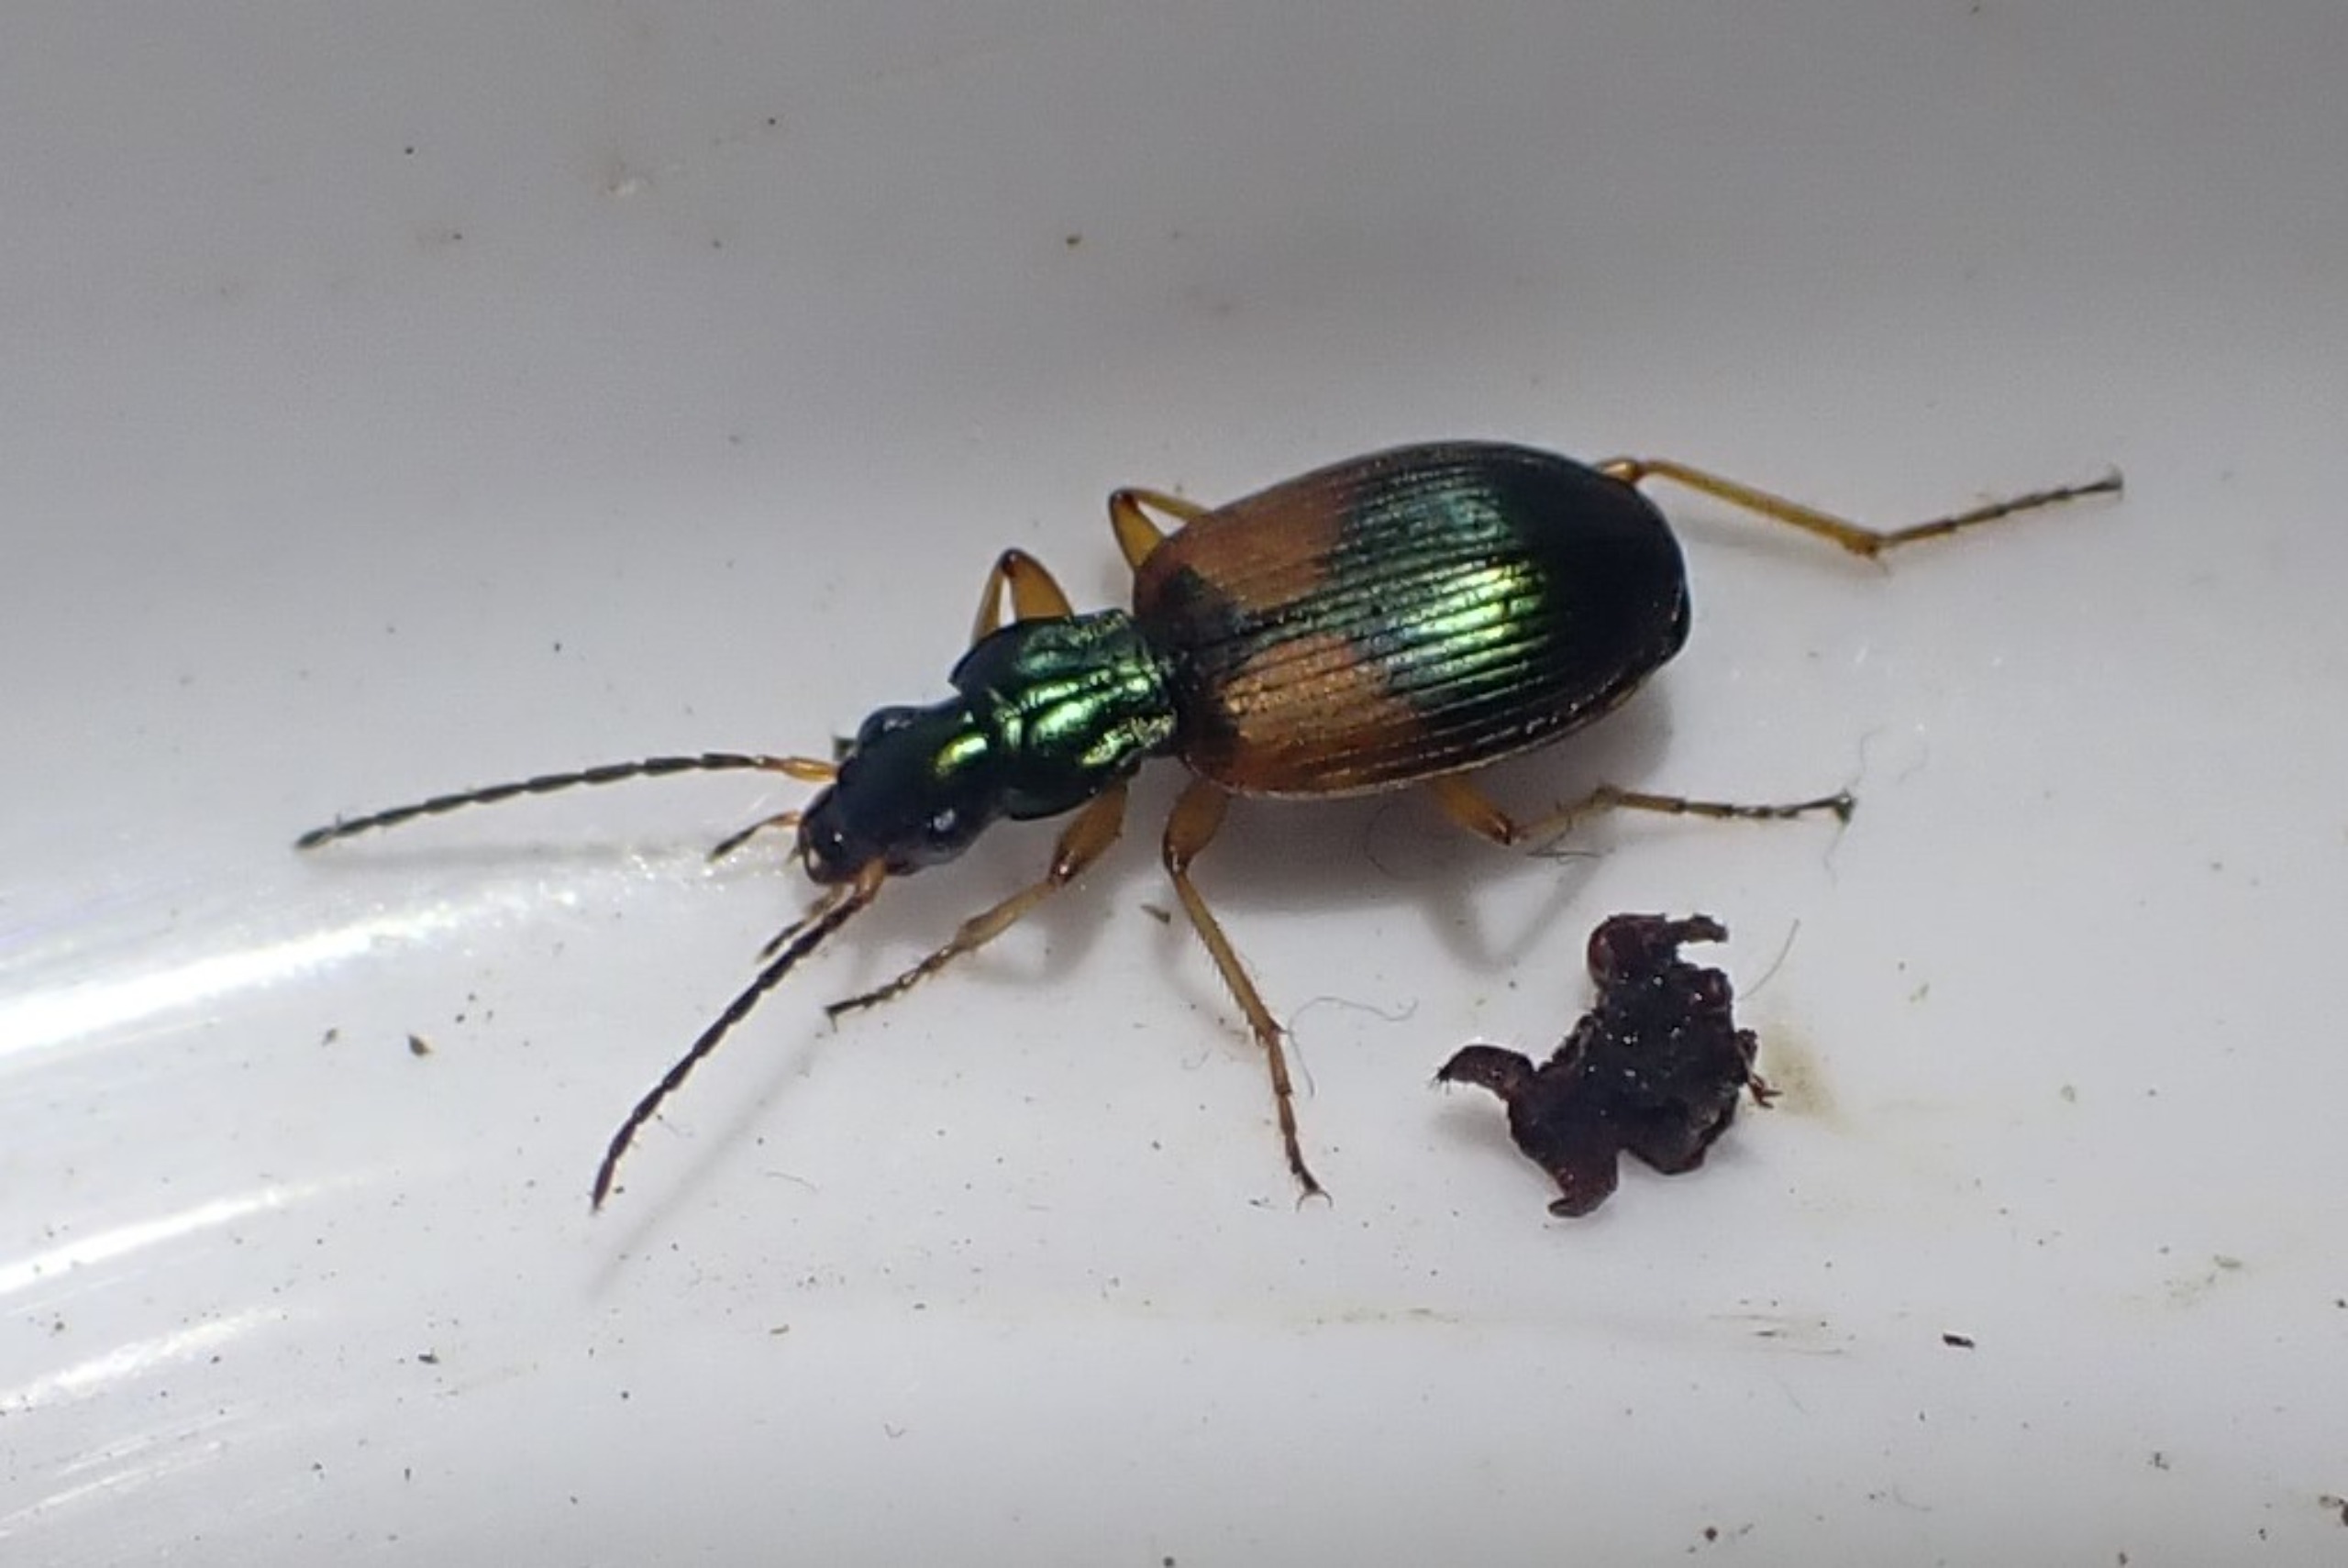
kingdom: Animalia
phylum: Arthropoda
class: Insecta
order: Coleoptera
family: Carabidae
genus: Anchomenus
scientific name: Anchomenus dorsalis
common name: Spraglet kvikløber
